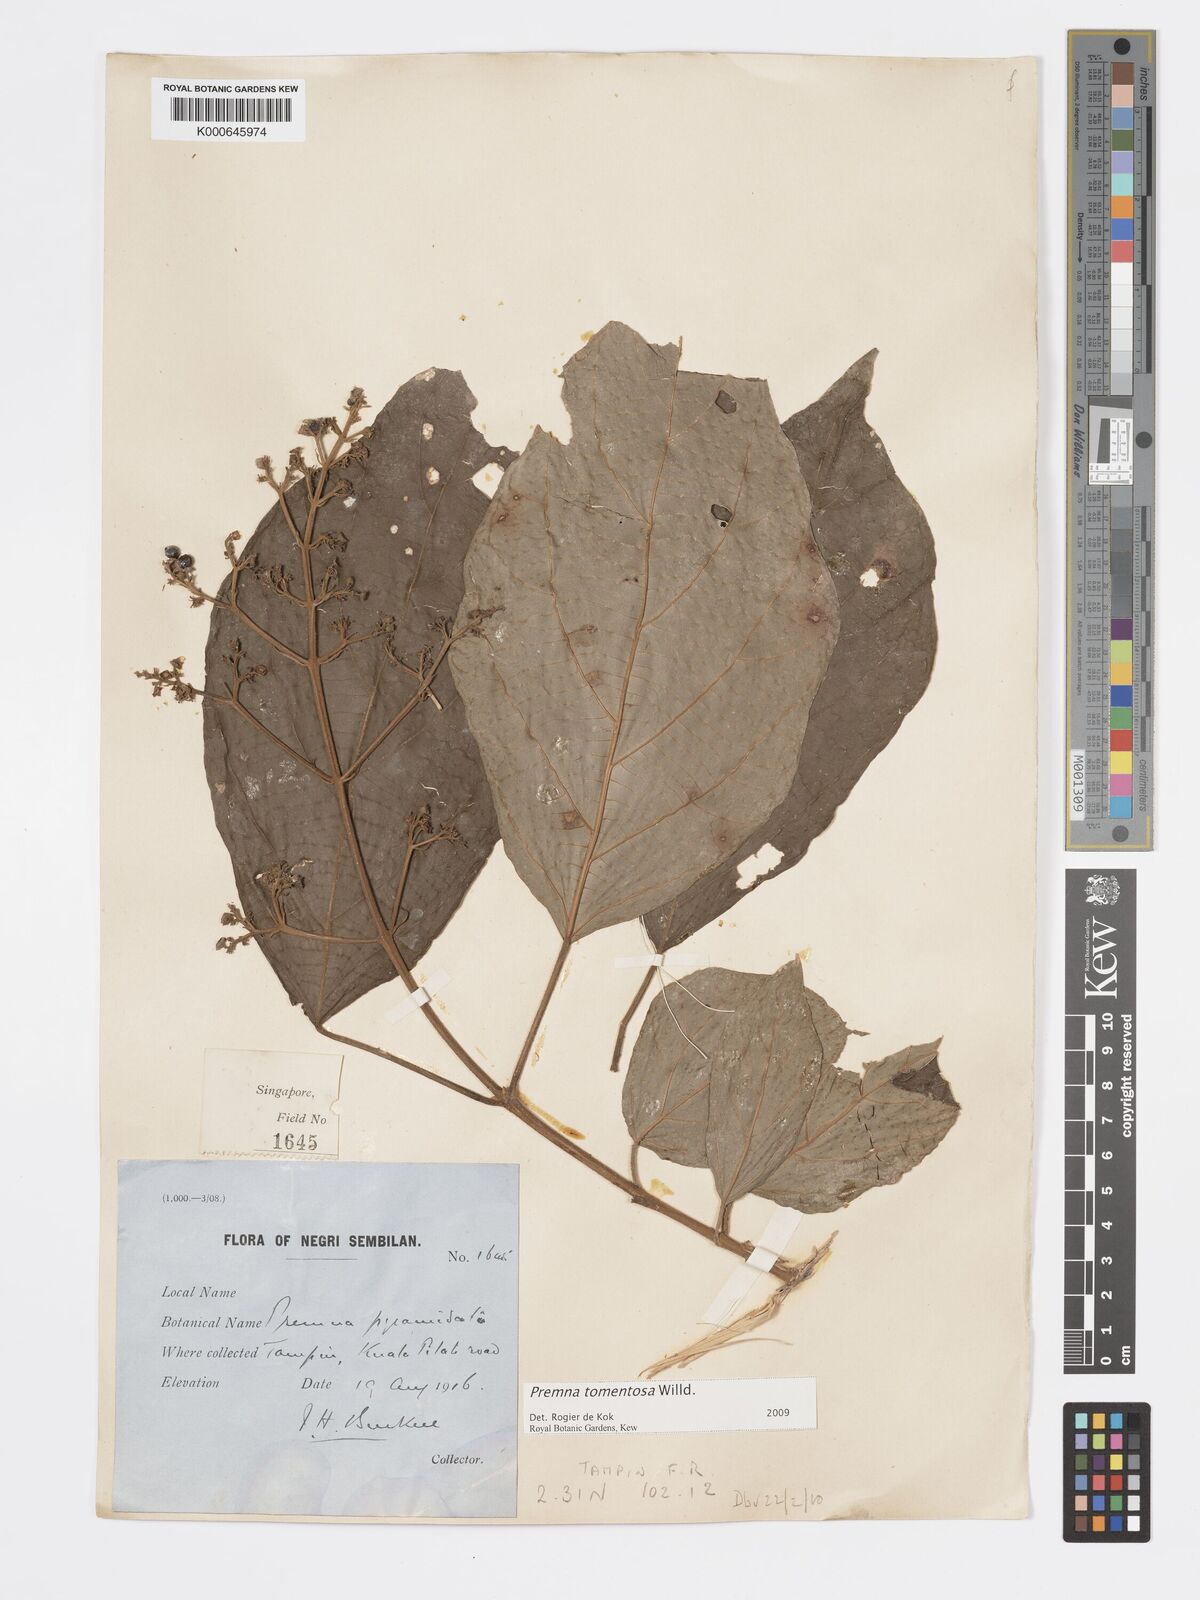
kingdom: Plantae
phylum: Tracheophyta
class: Magnoliopsida
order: Lamiales
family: Lamiaceae
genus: Premna
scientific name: Premna tomentosa
